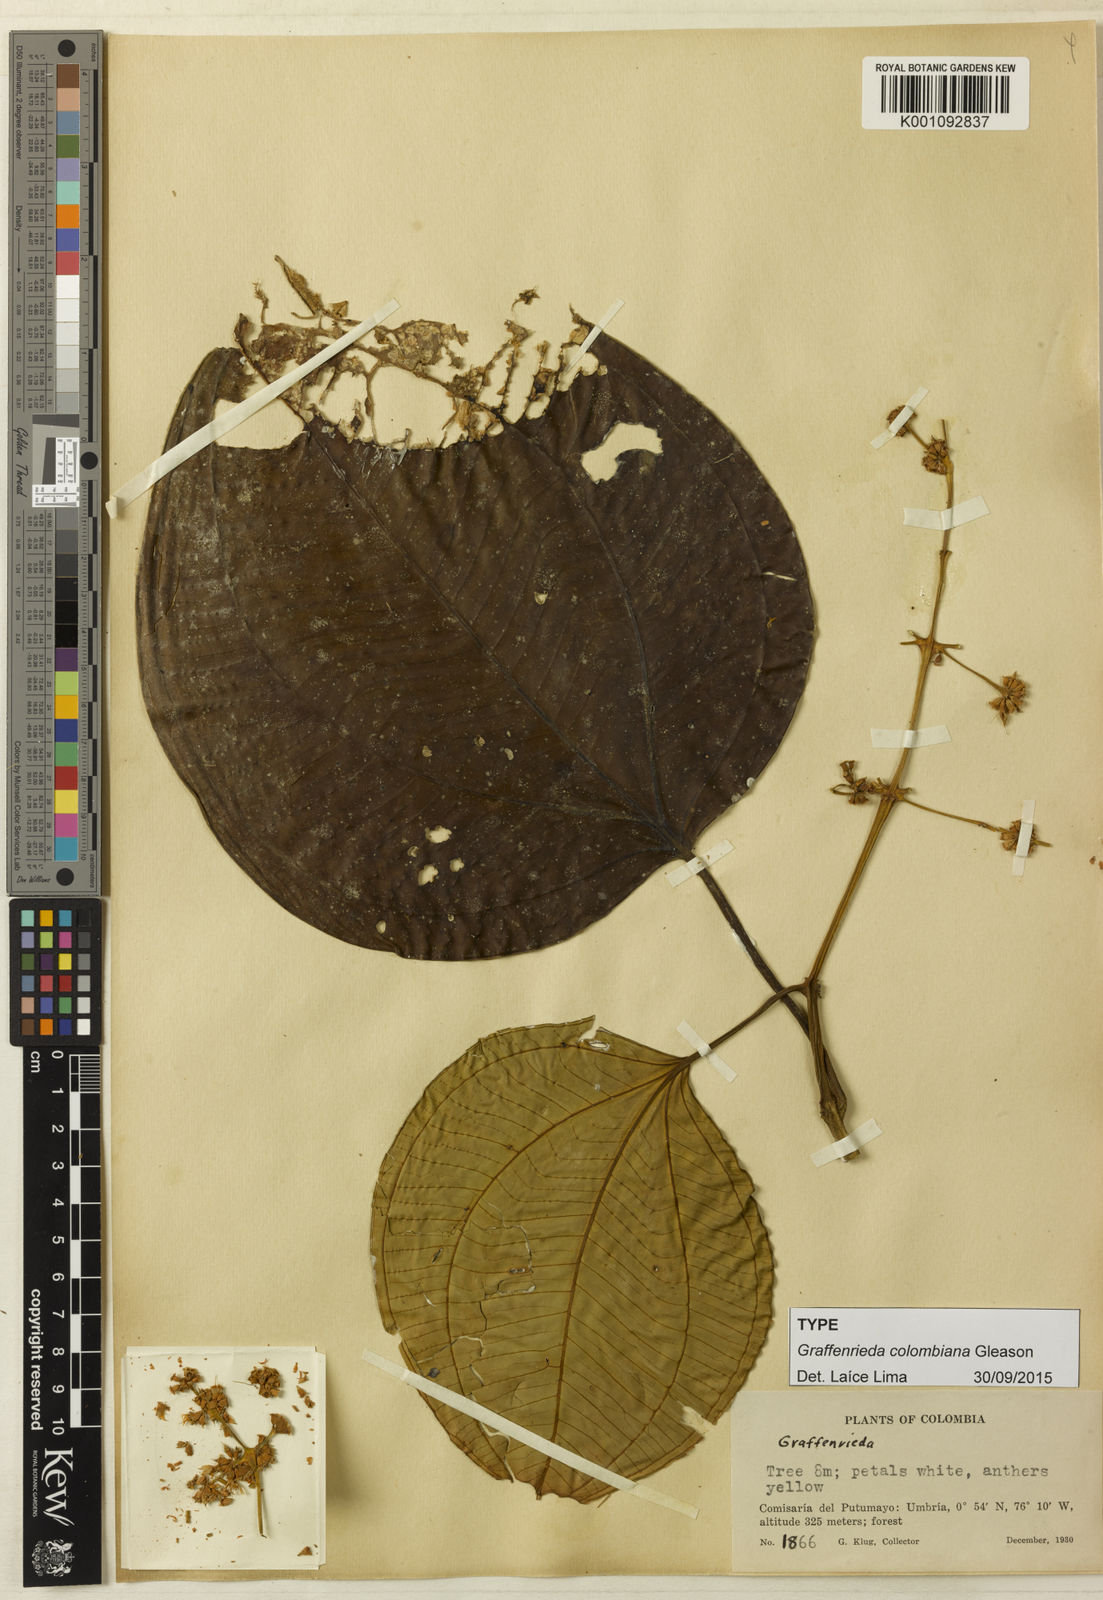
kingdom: Plantae
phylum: Tracheophyta
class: Magnoliopsida
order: Myrtales
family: Melastomataceae
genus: Graffenrieda
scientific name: Graffenrieda colombiana
